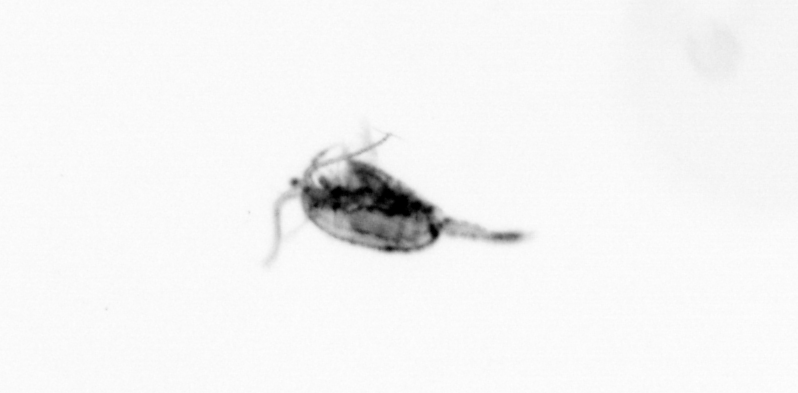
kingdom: Animalia
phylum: Arthropoda
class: Copepoda
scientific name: Copepoda
